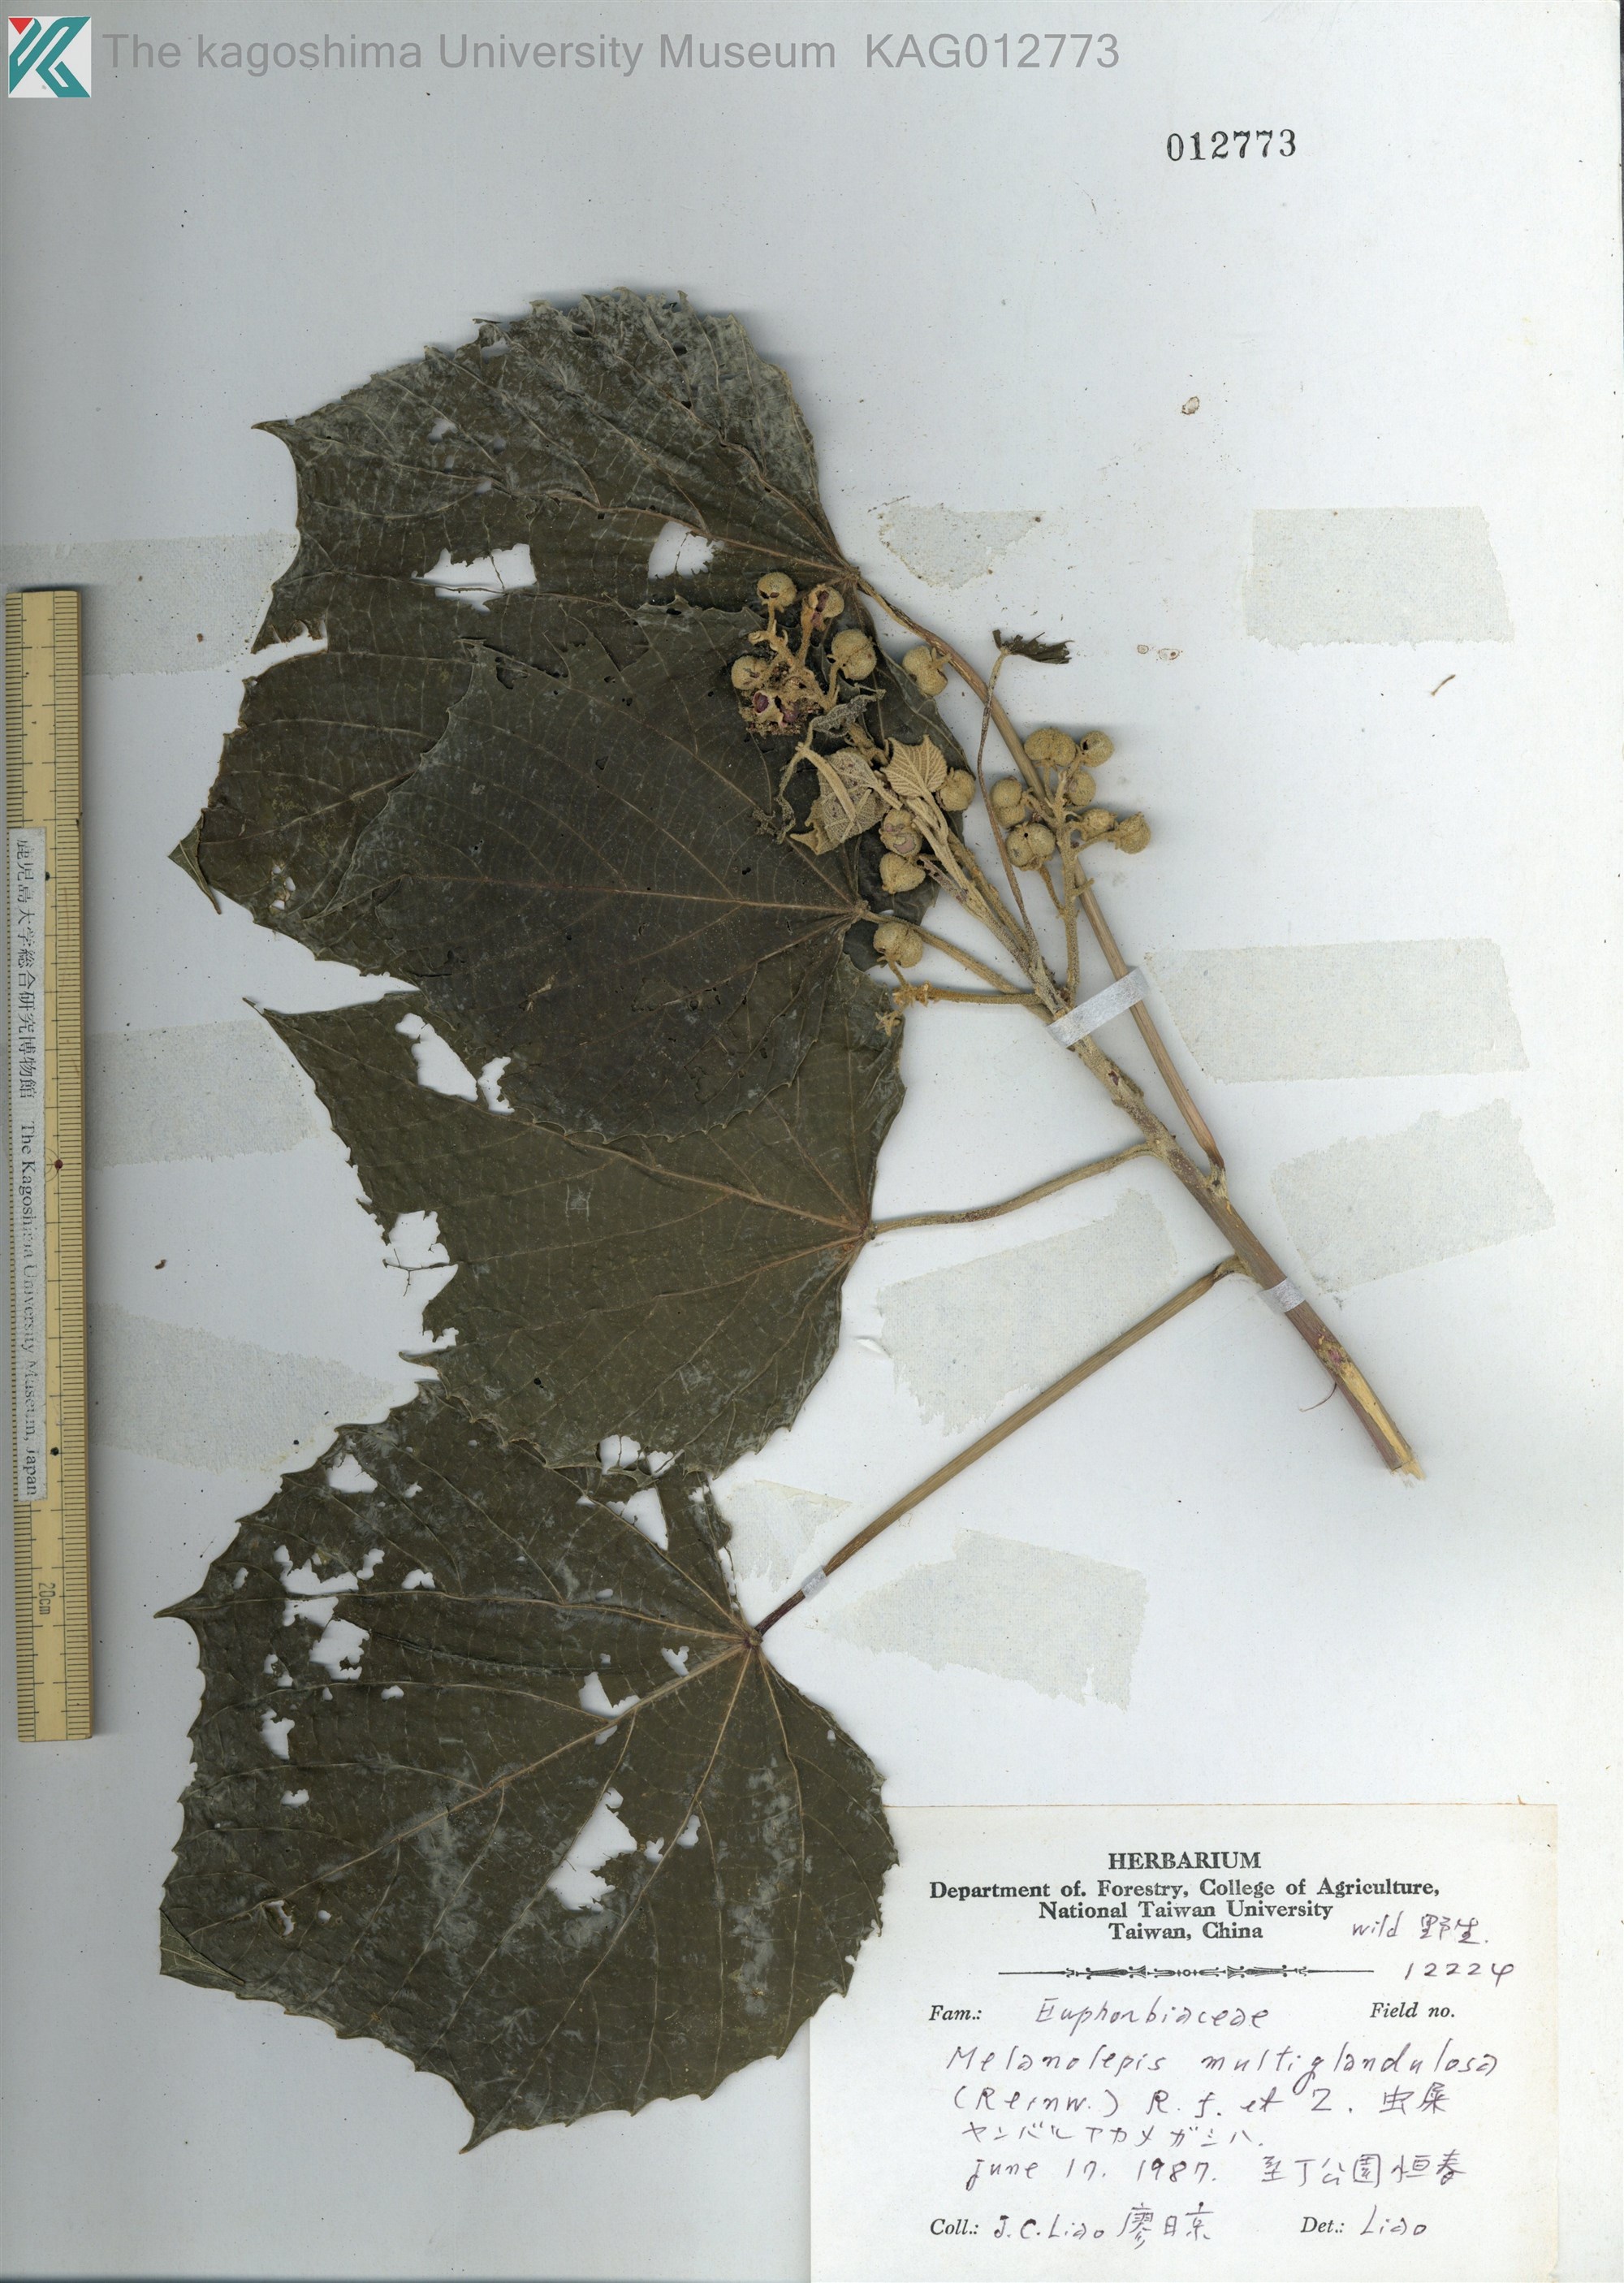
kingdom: Plantae
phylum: Tracheophyta
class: Magnoliopsida
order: Malpighiales
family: Euphorbiaceae
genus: Melanolepis
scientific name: Melanolepis multiglandulosa
